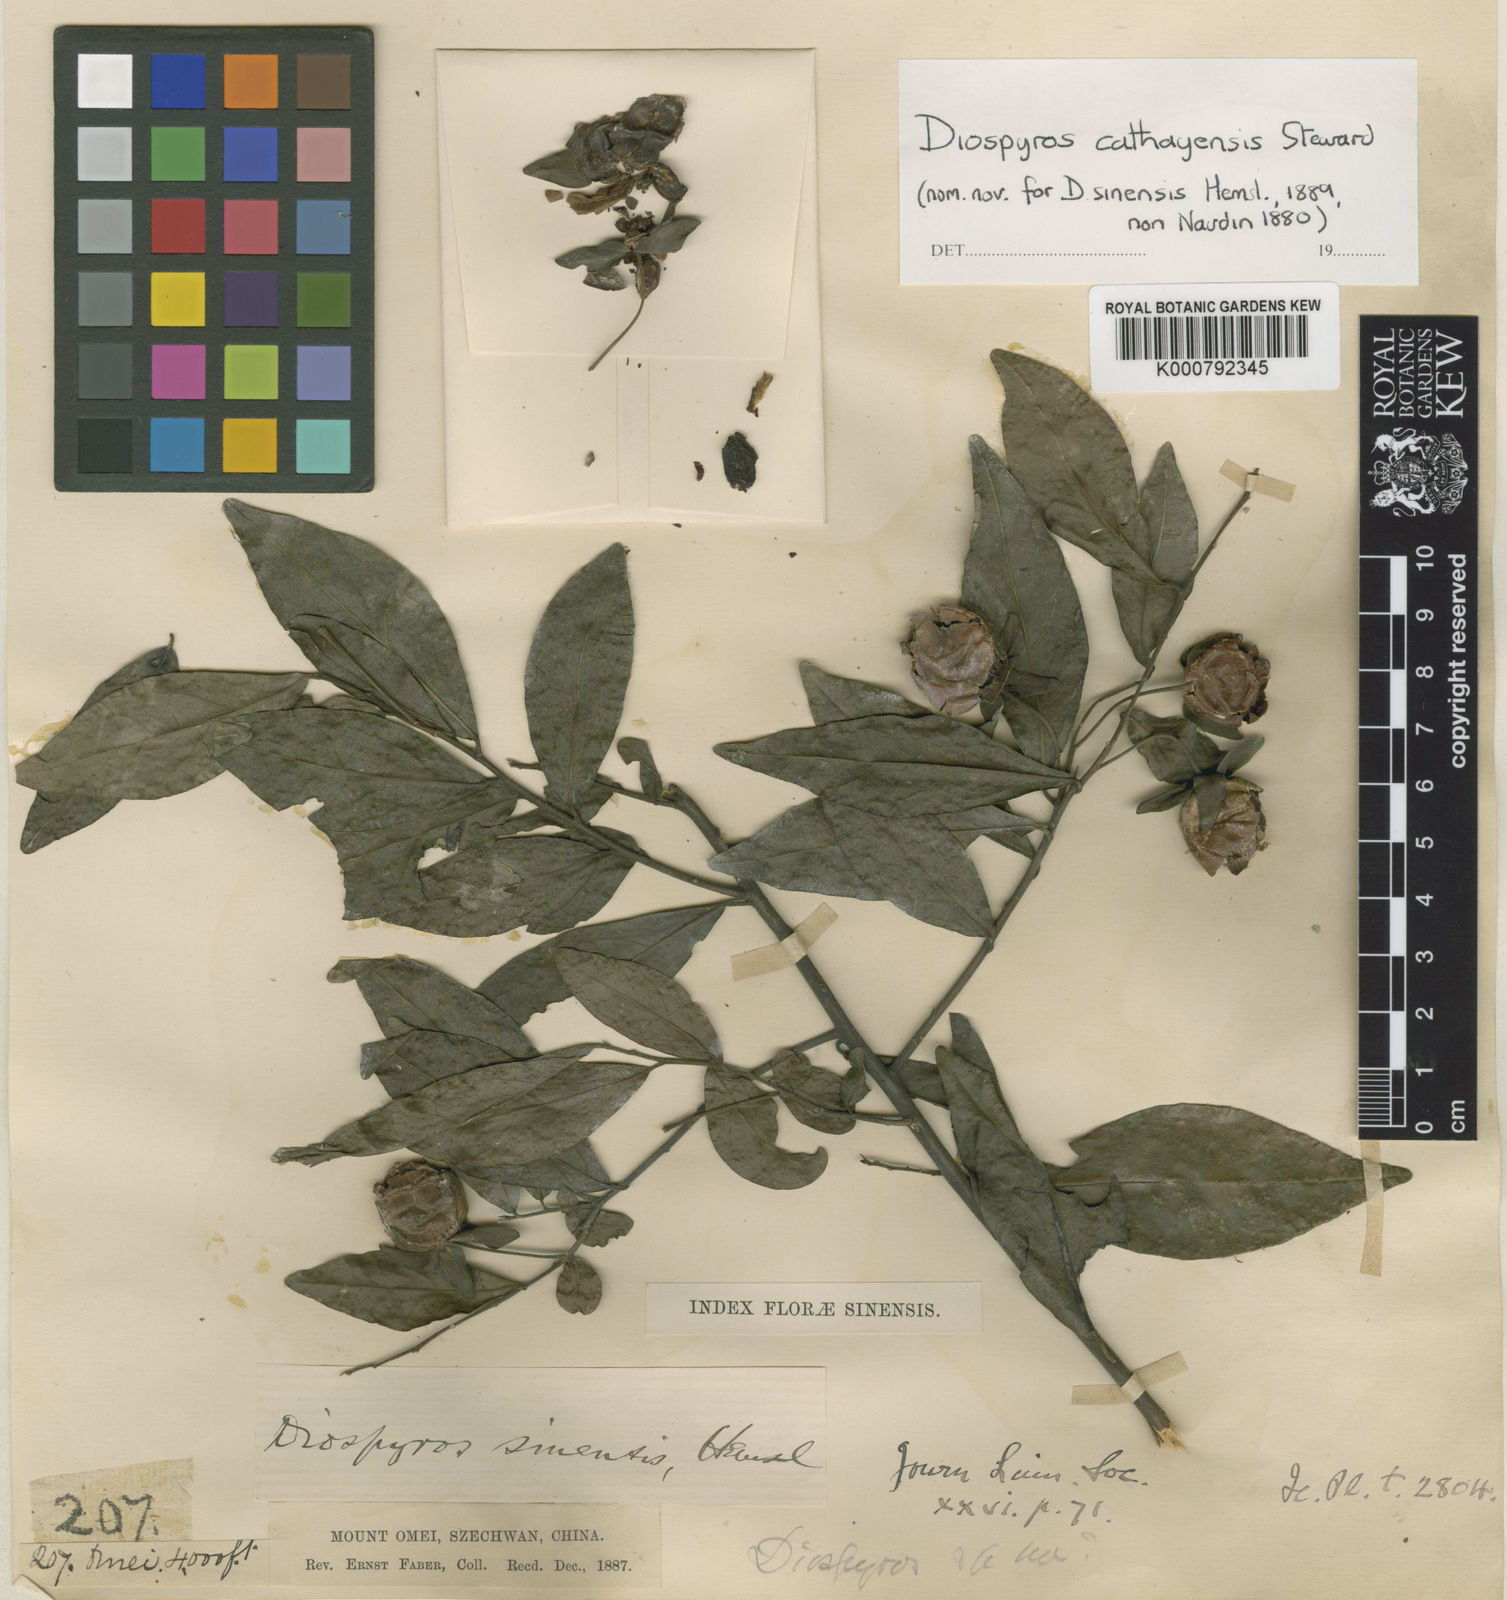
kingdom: Plantae
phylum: Tracheophyta
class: Magnoliopsida
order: Ericales
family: Ebenaceae
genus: Diospyros
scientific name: Diospyros cathayensis
